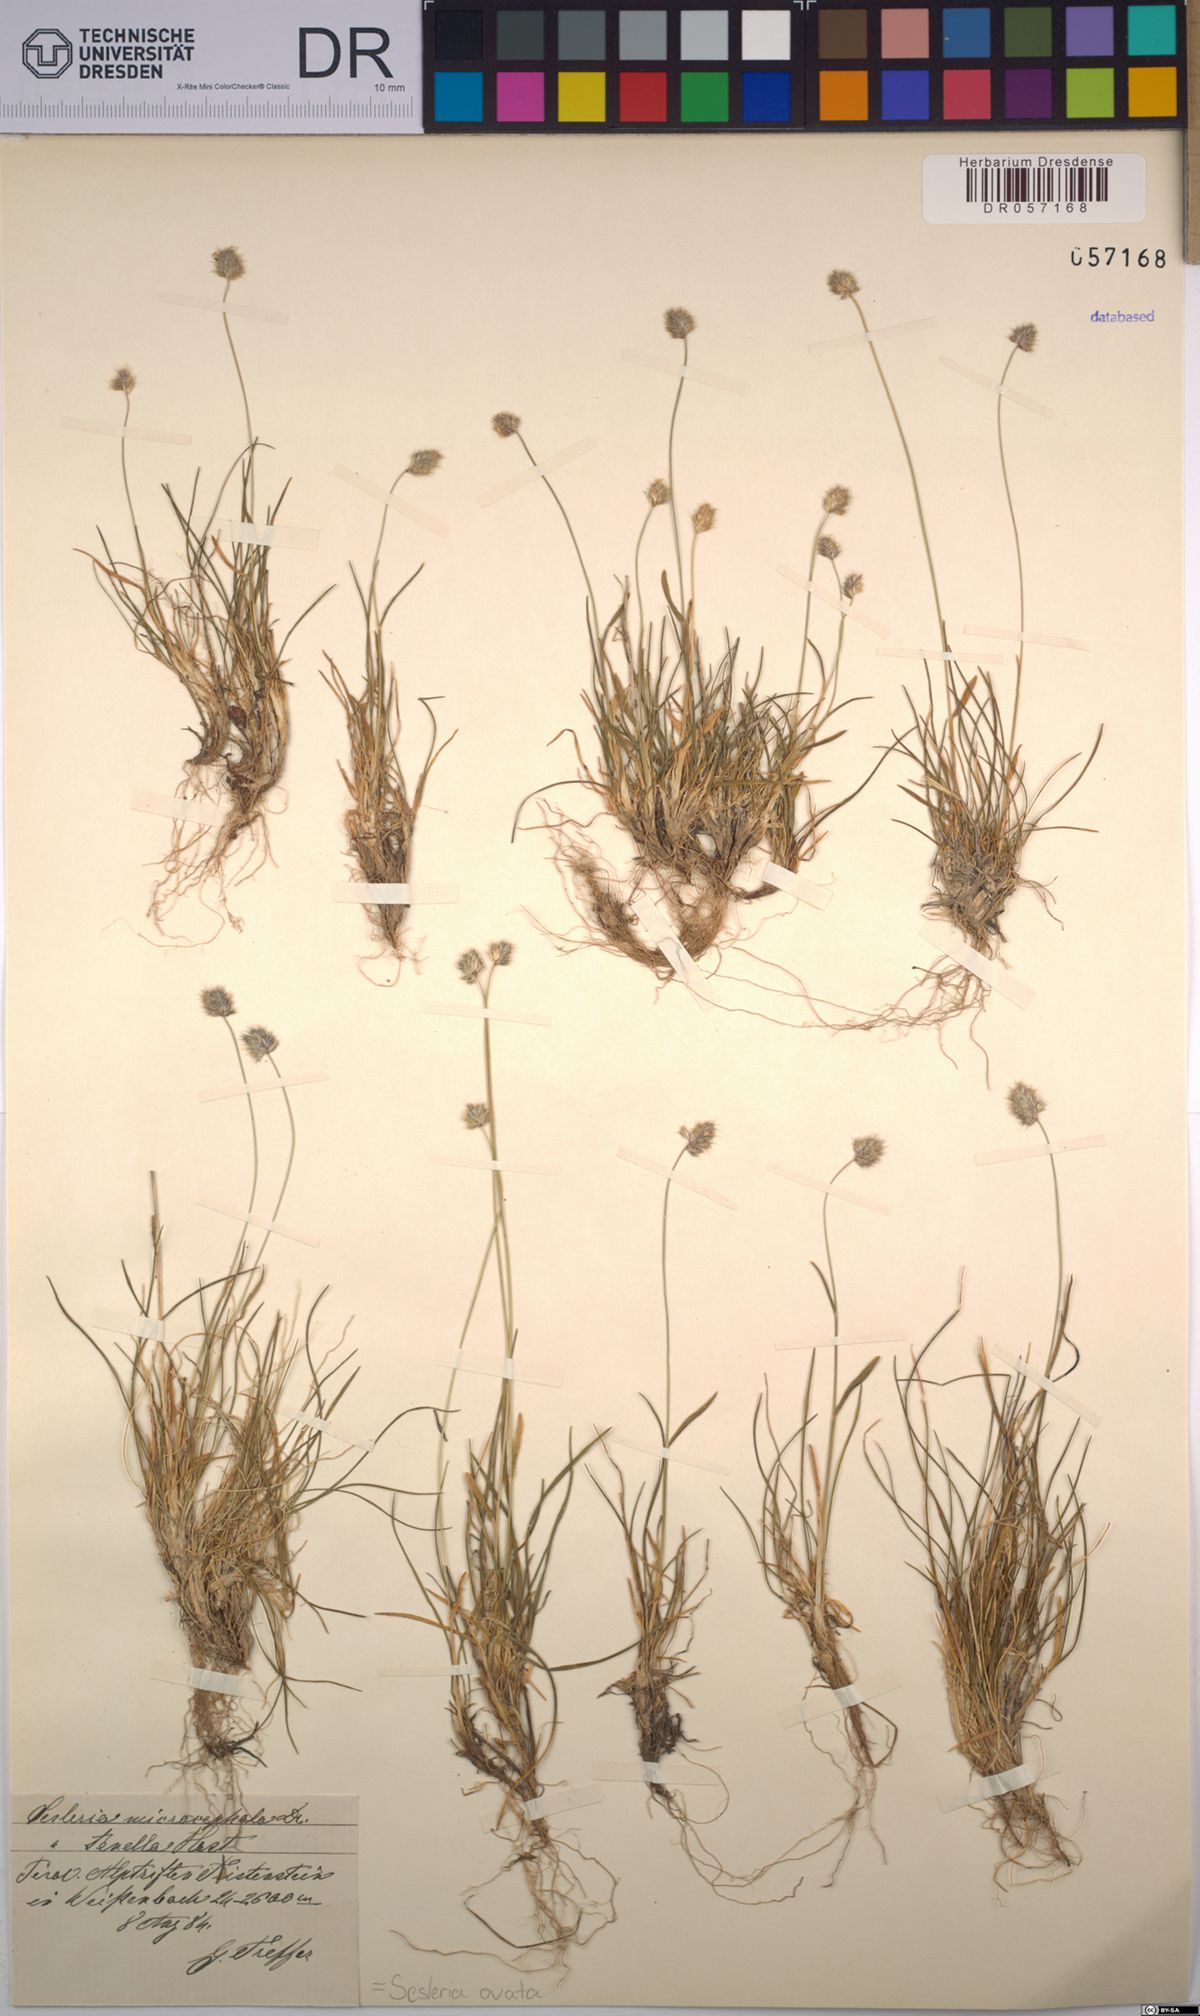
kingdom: Plantae
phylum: Tracheophyta
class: Liliopsida
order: Poales
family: Poaceae
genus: Psilathera
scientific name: Psilathera ovata
